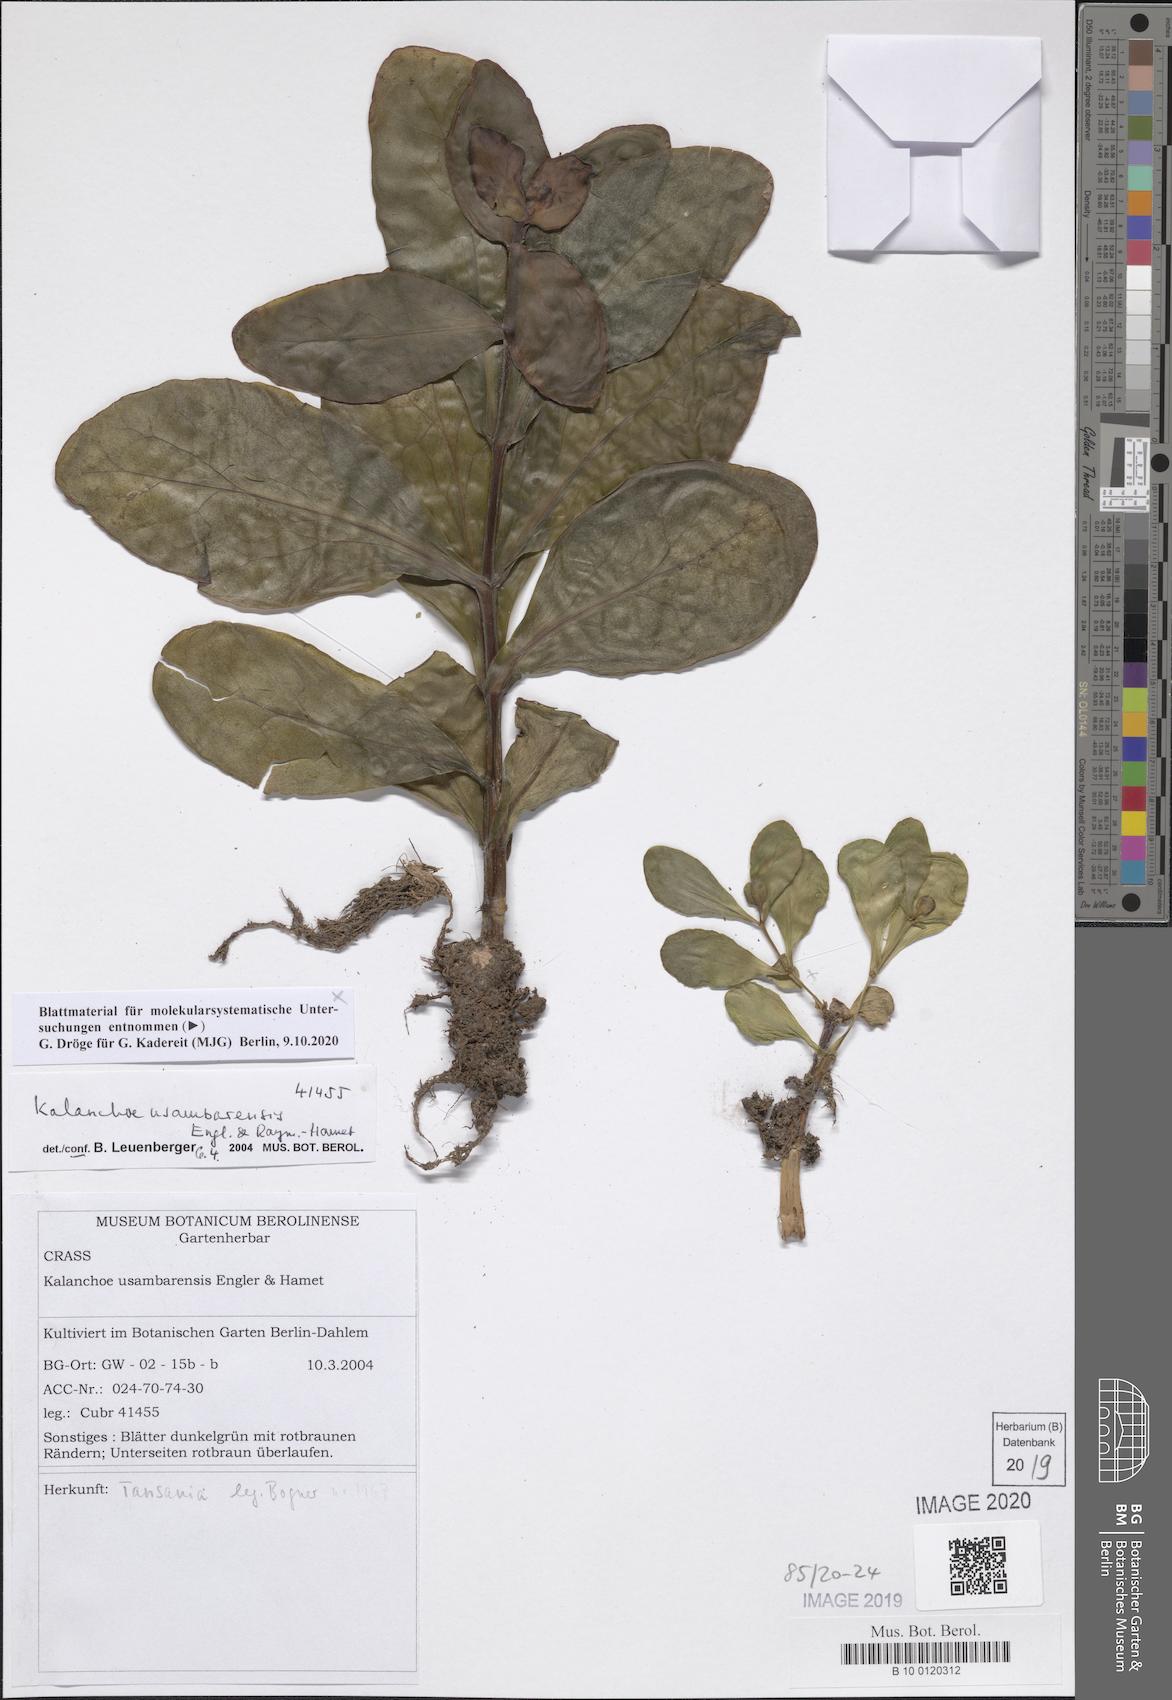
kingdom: Plantae
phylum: Tracheophyta
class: Magnoliopsida
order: Saxifragales
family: Crassulaceae
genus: Kalanchoe
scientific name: Kalanchoe usambarensis
